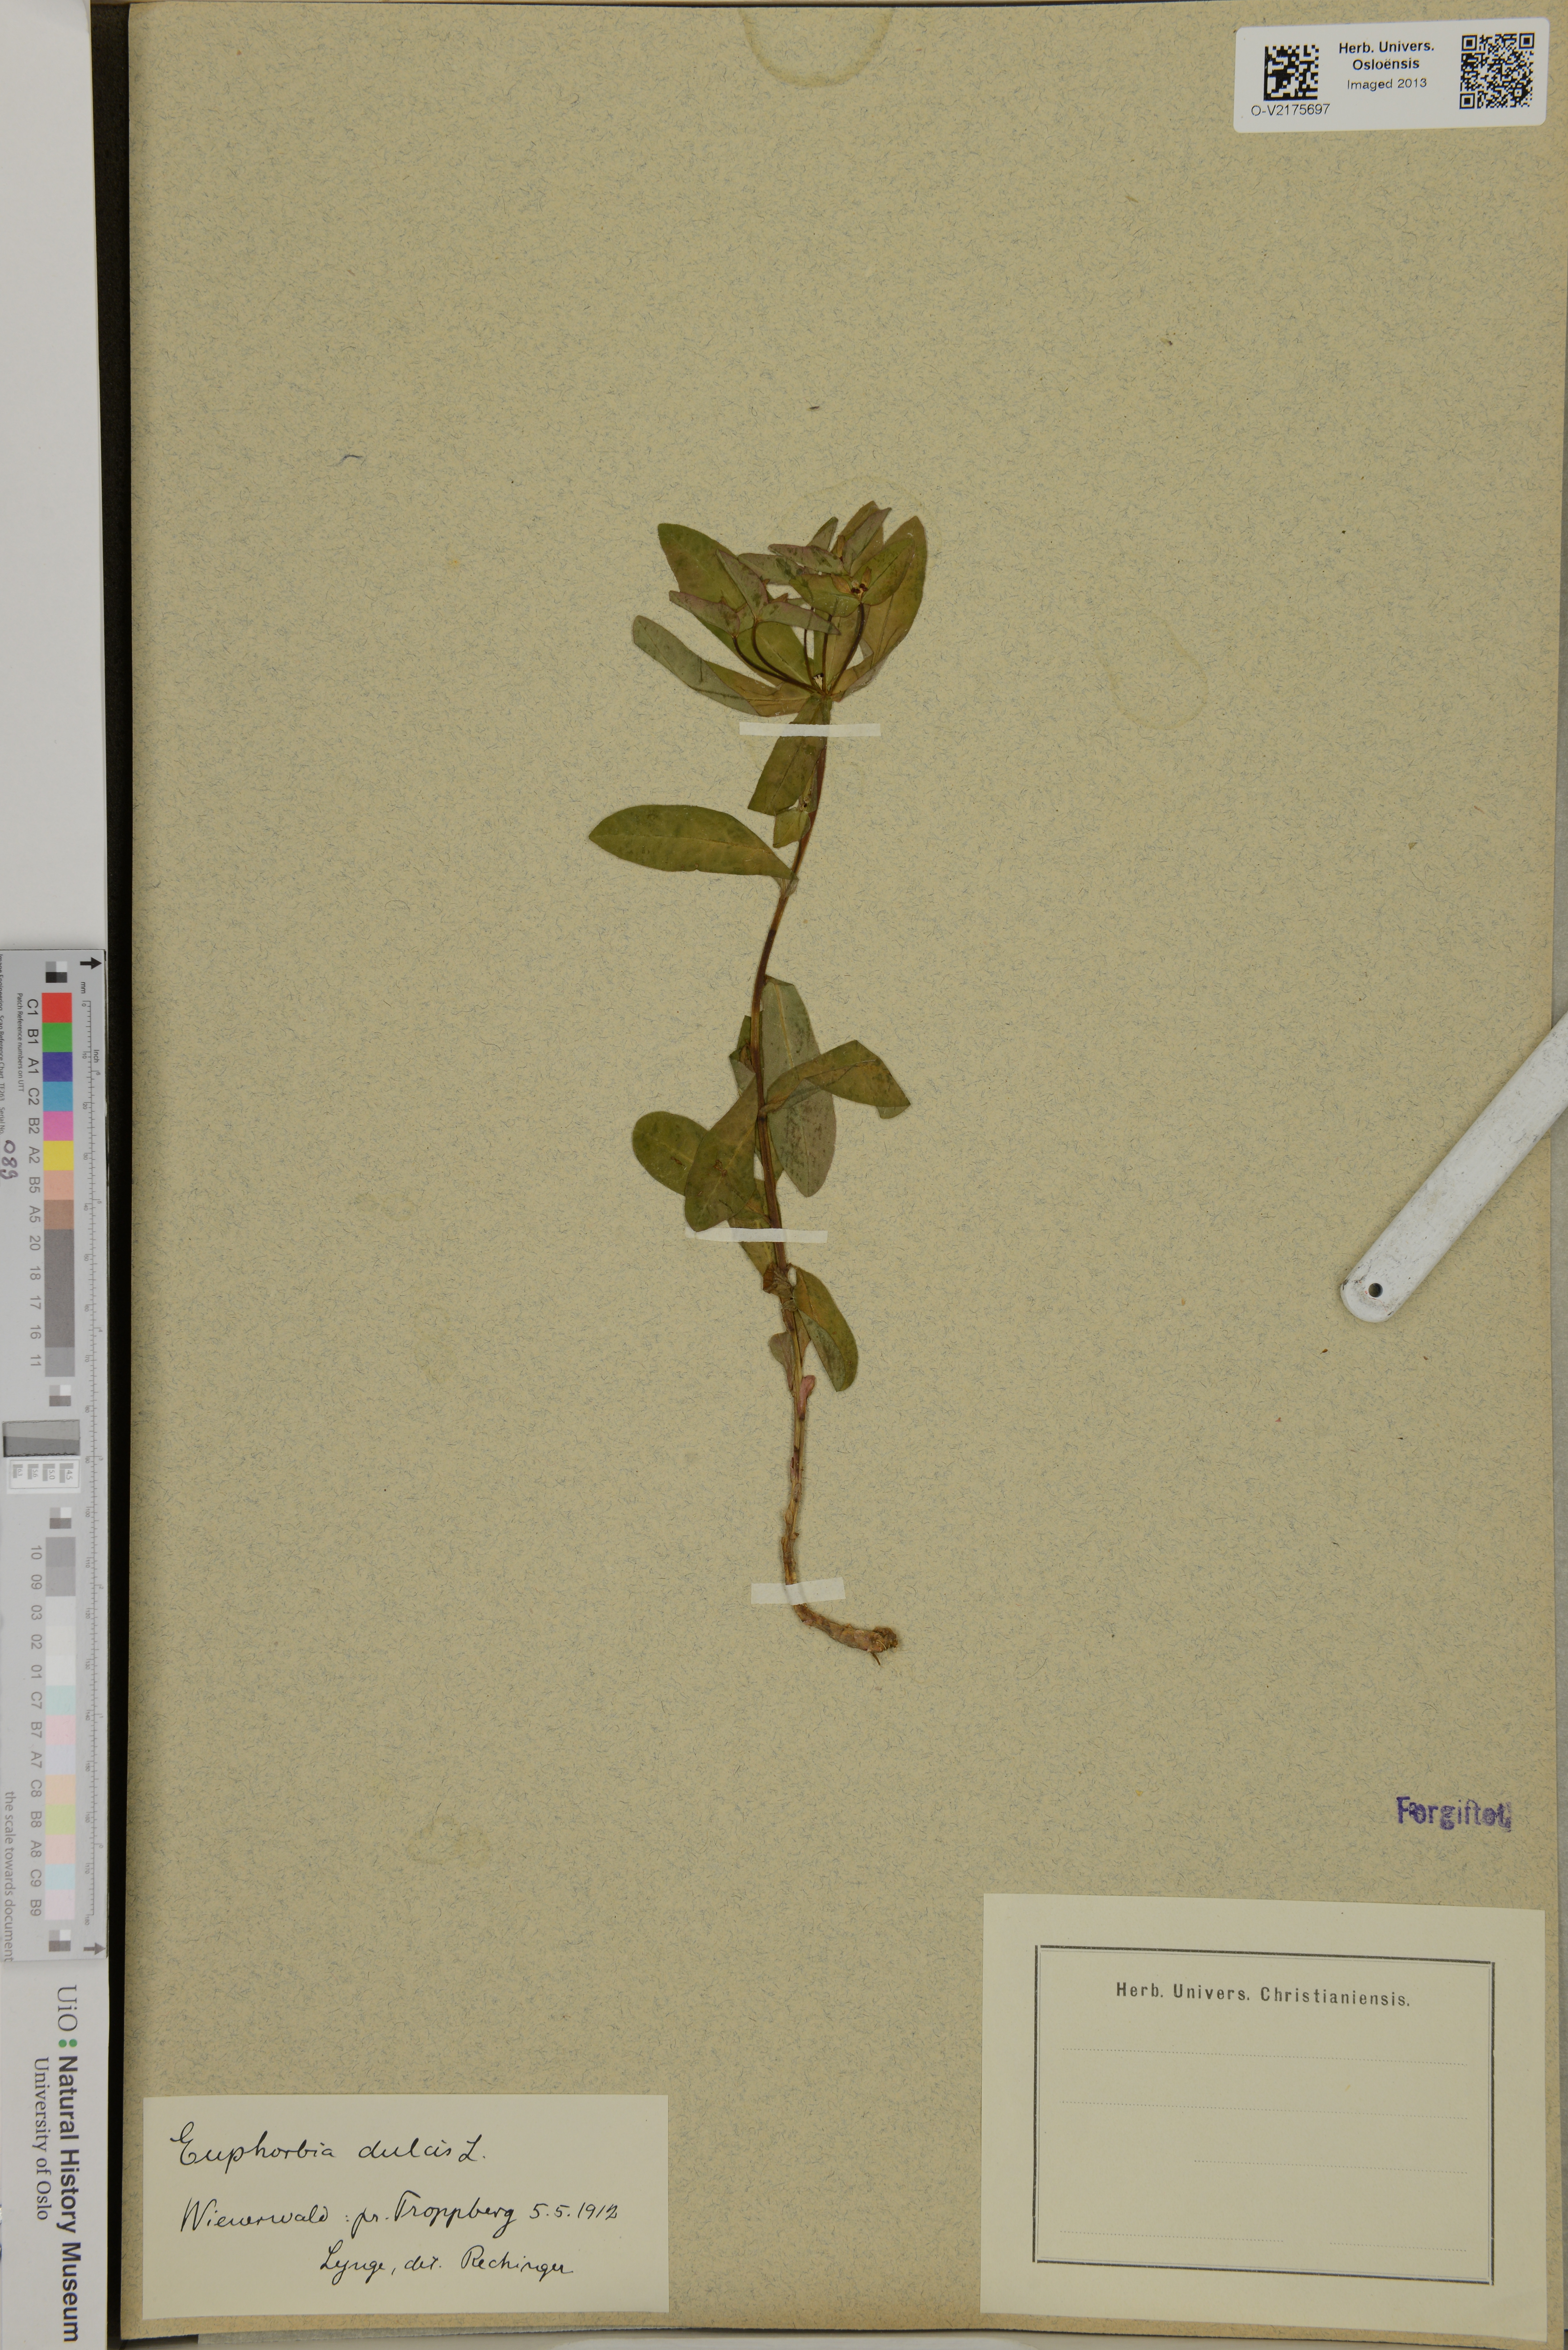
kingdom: Plantae
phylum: Tracheophyta
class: Magnoliopsida
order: Malpighiales
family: Euphorbiaceae
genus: Euphorbia
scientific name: Euphorbia dulcis
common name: Sweet spurge
